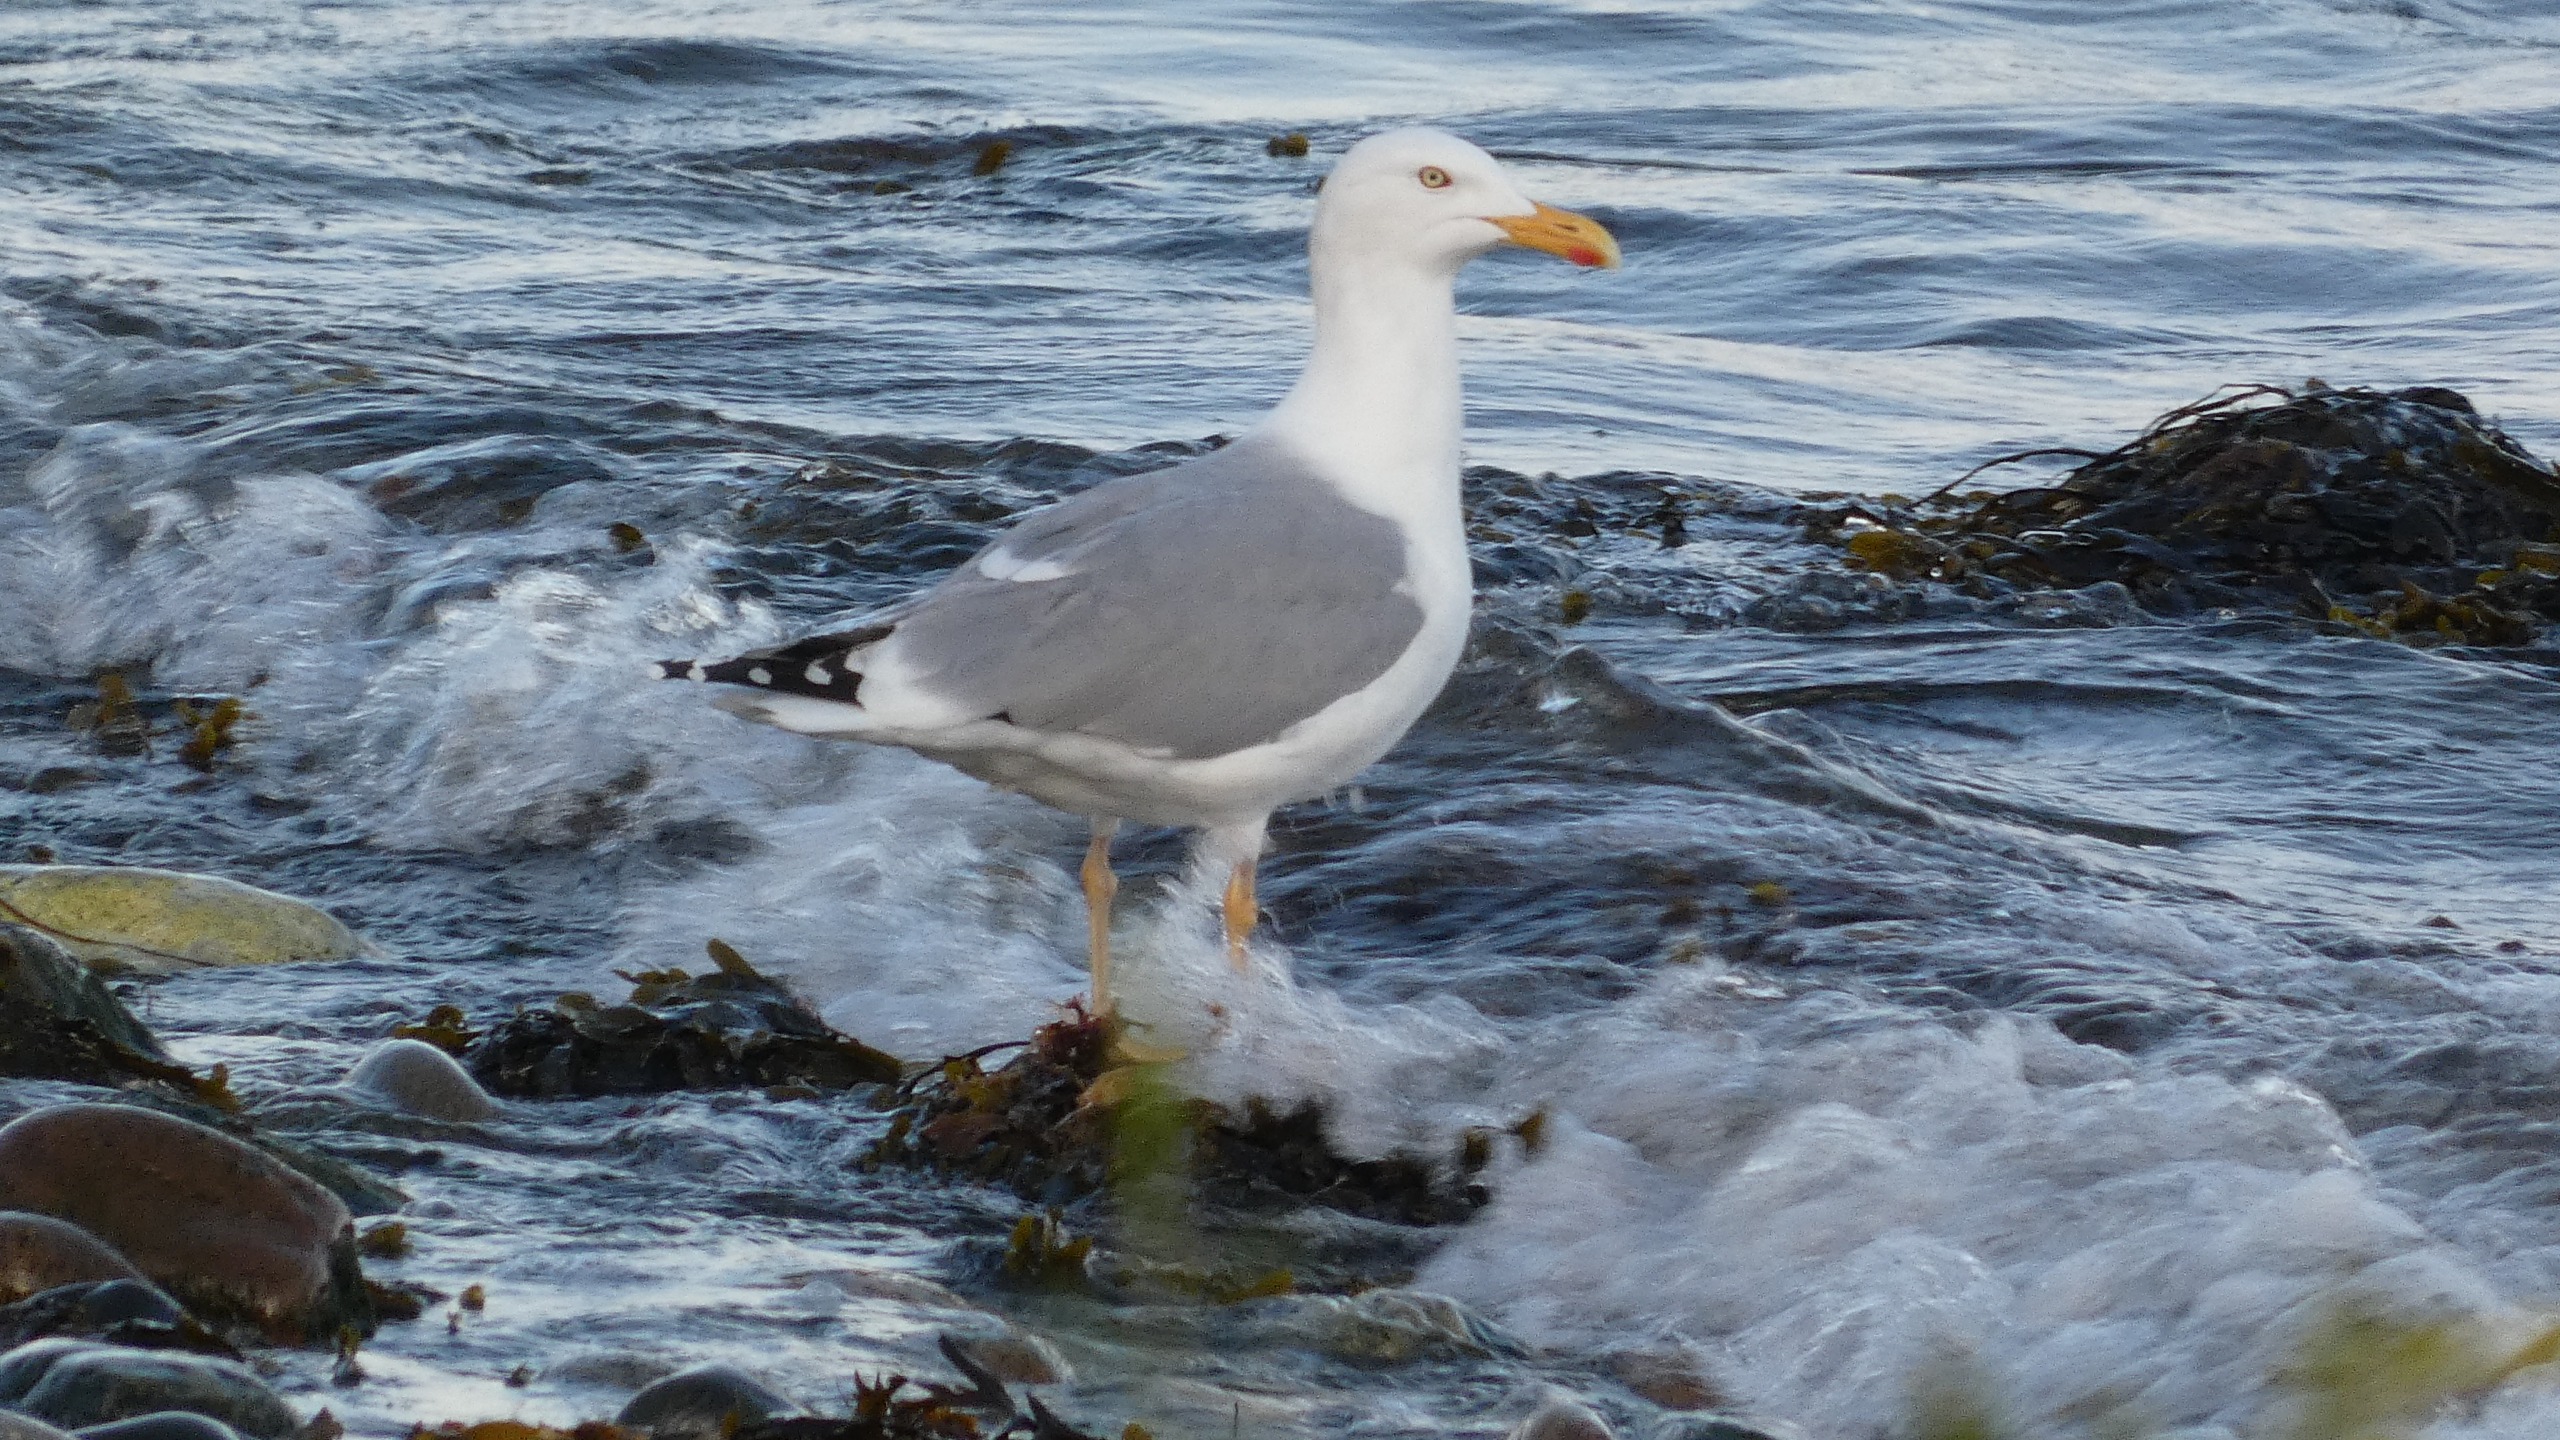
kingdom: Animalia
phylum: Chordata
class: Aves
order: Charadriiformes
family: Laridae
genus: Larus
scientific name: Larus argentatus
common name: Sølvmåge
